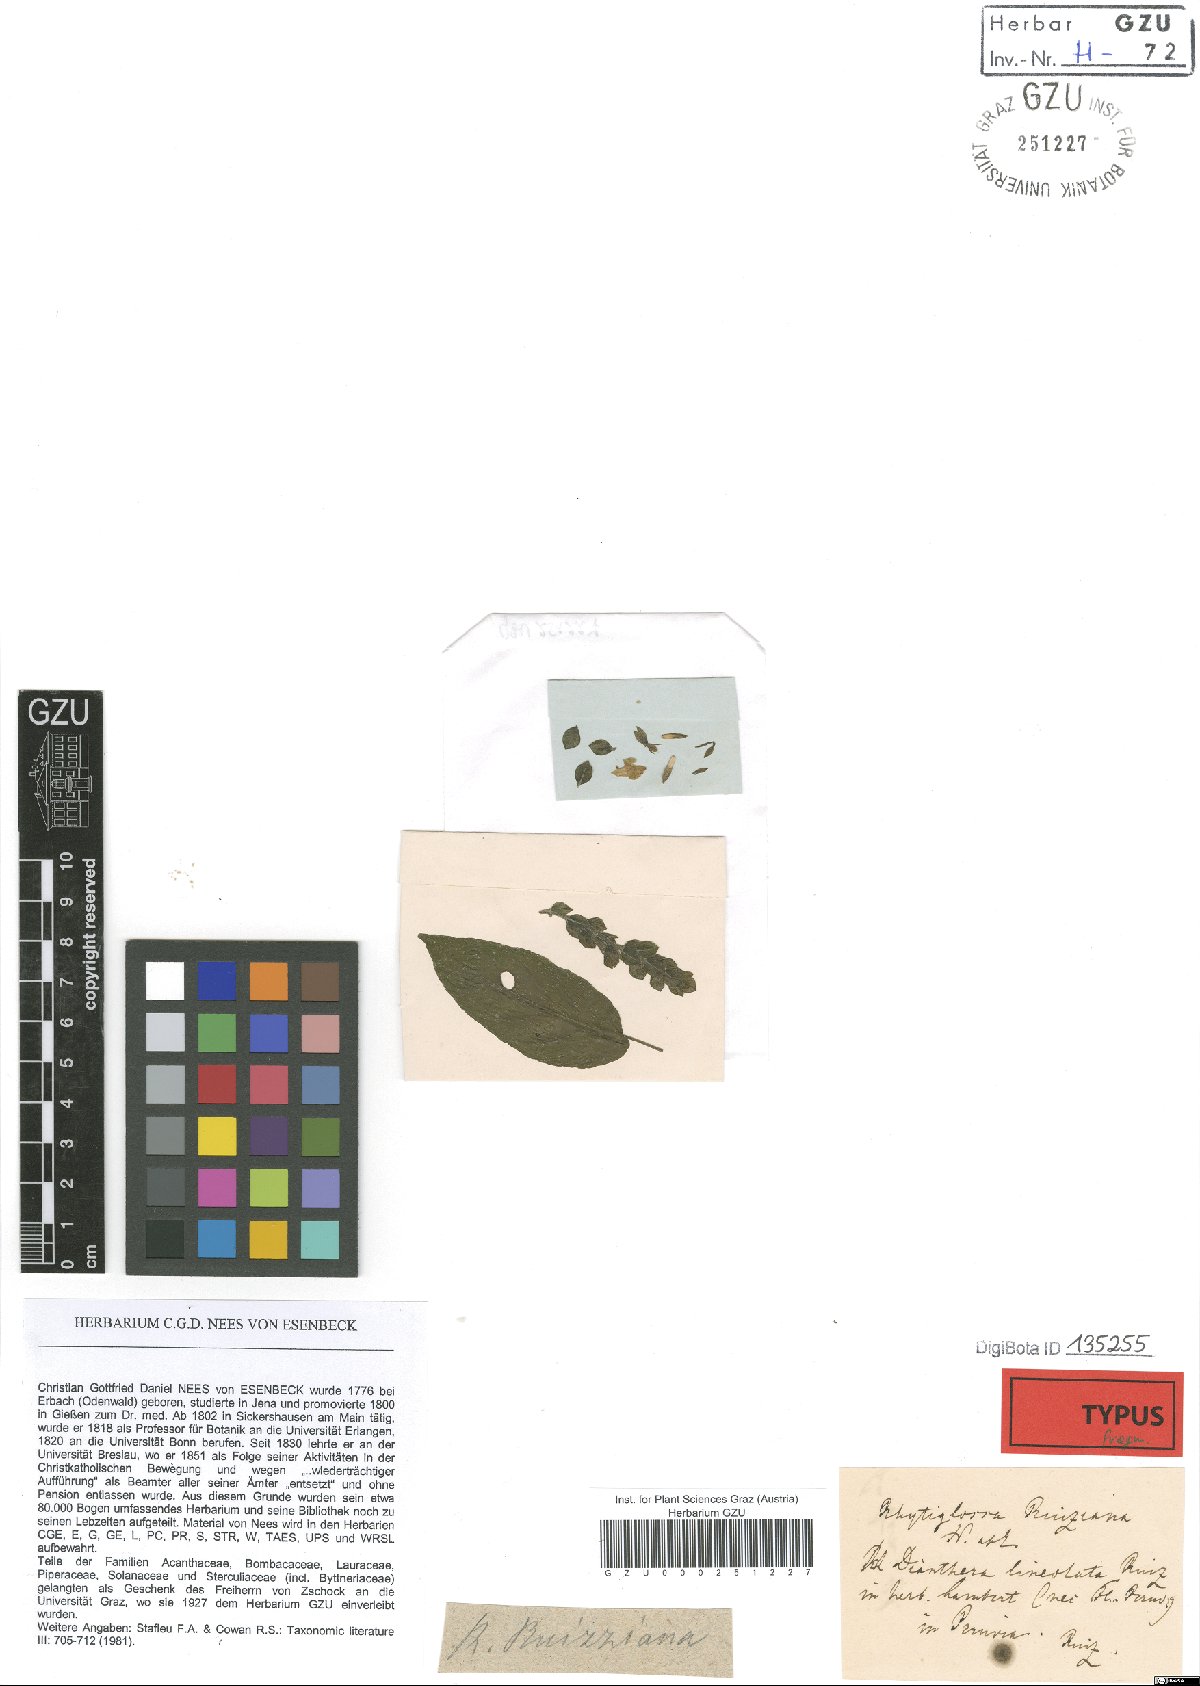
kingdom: Plantae
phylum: Tracheophyta
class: Magnoliopsida
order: Lamiales
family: Acanthaceae
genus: Justicia
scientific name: Justicia lineolata
